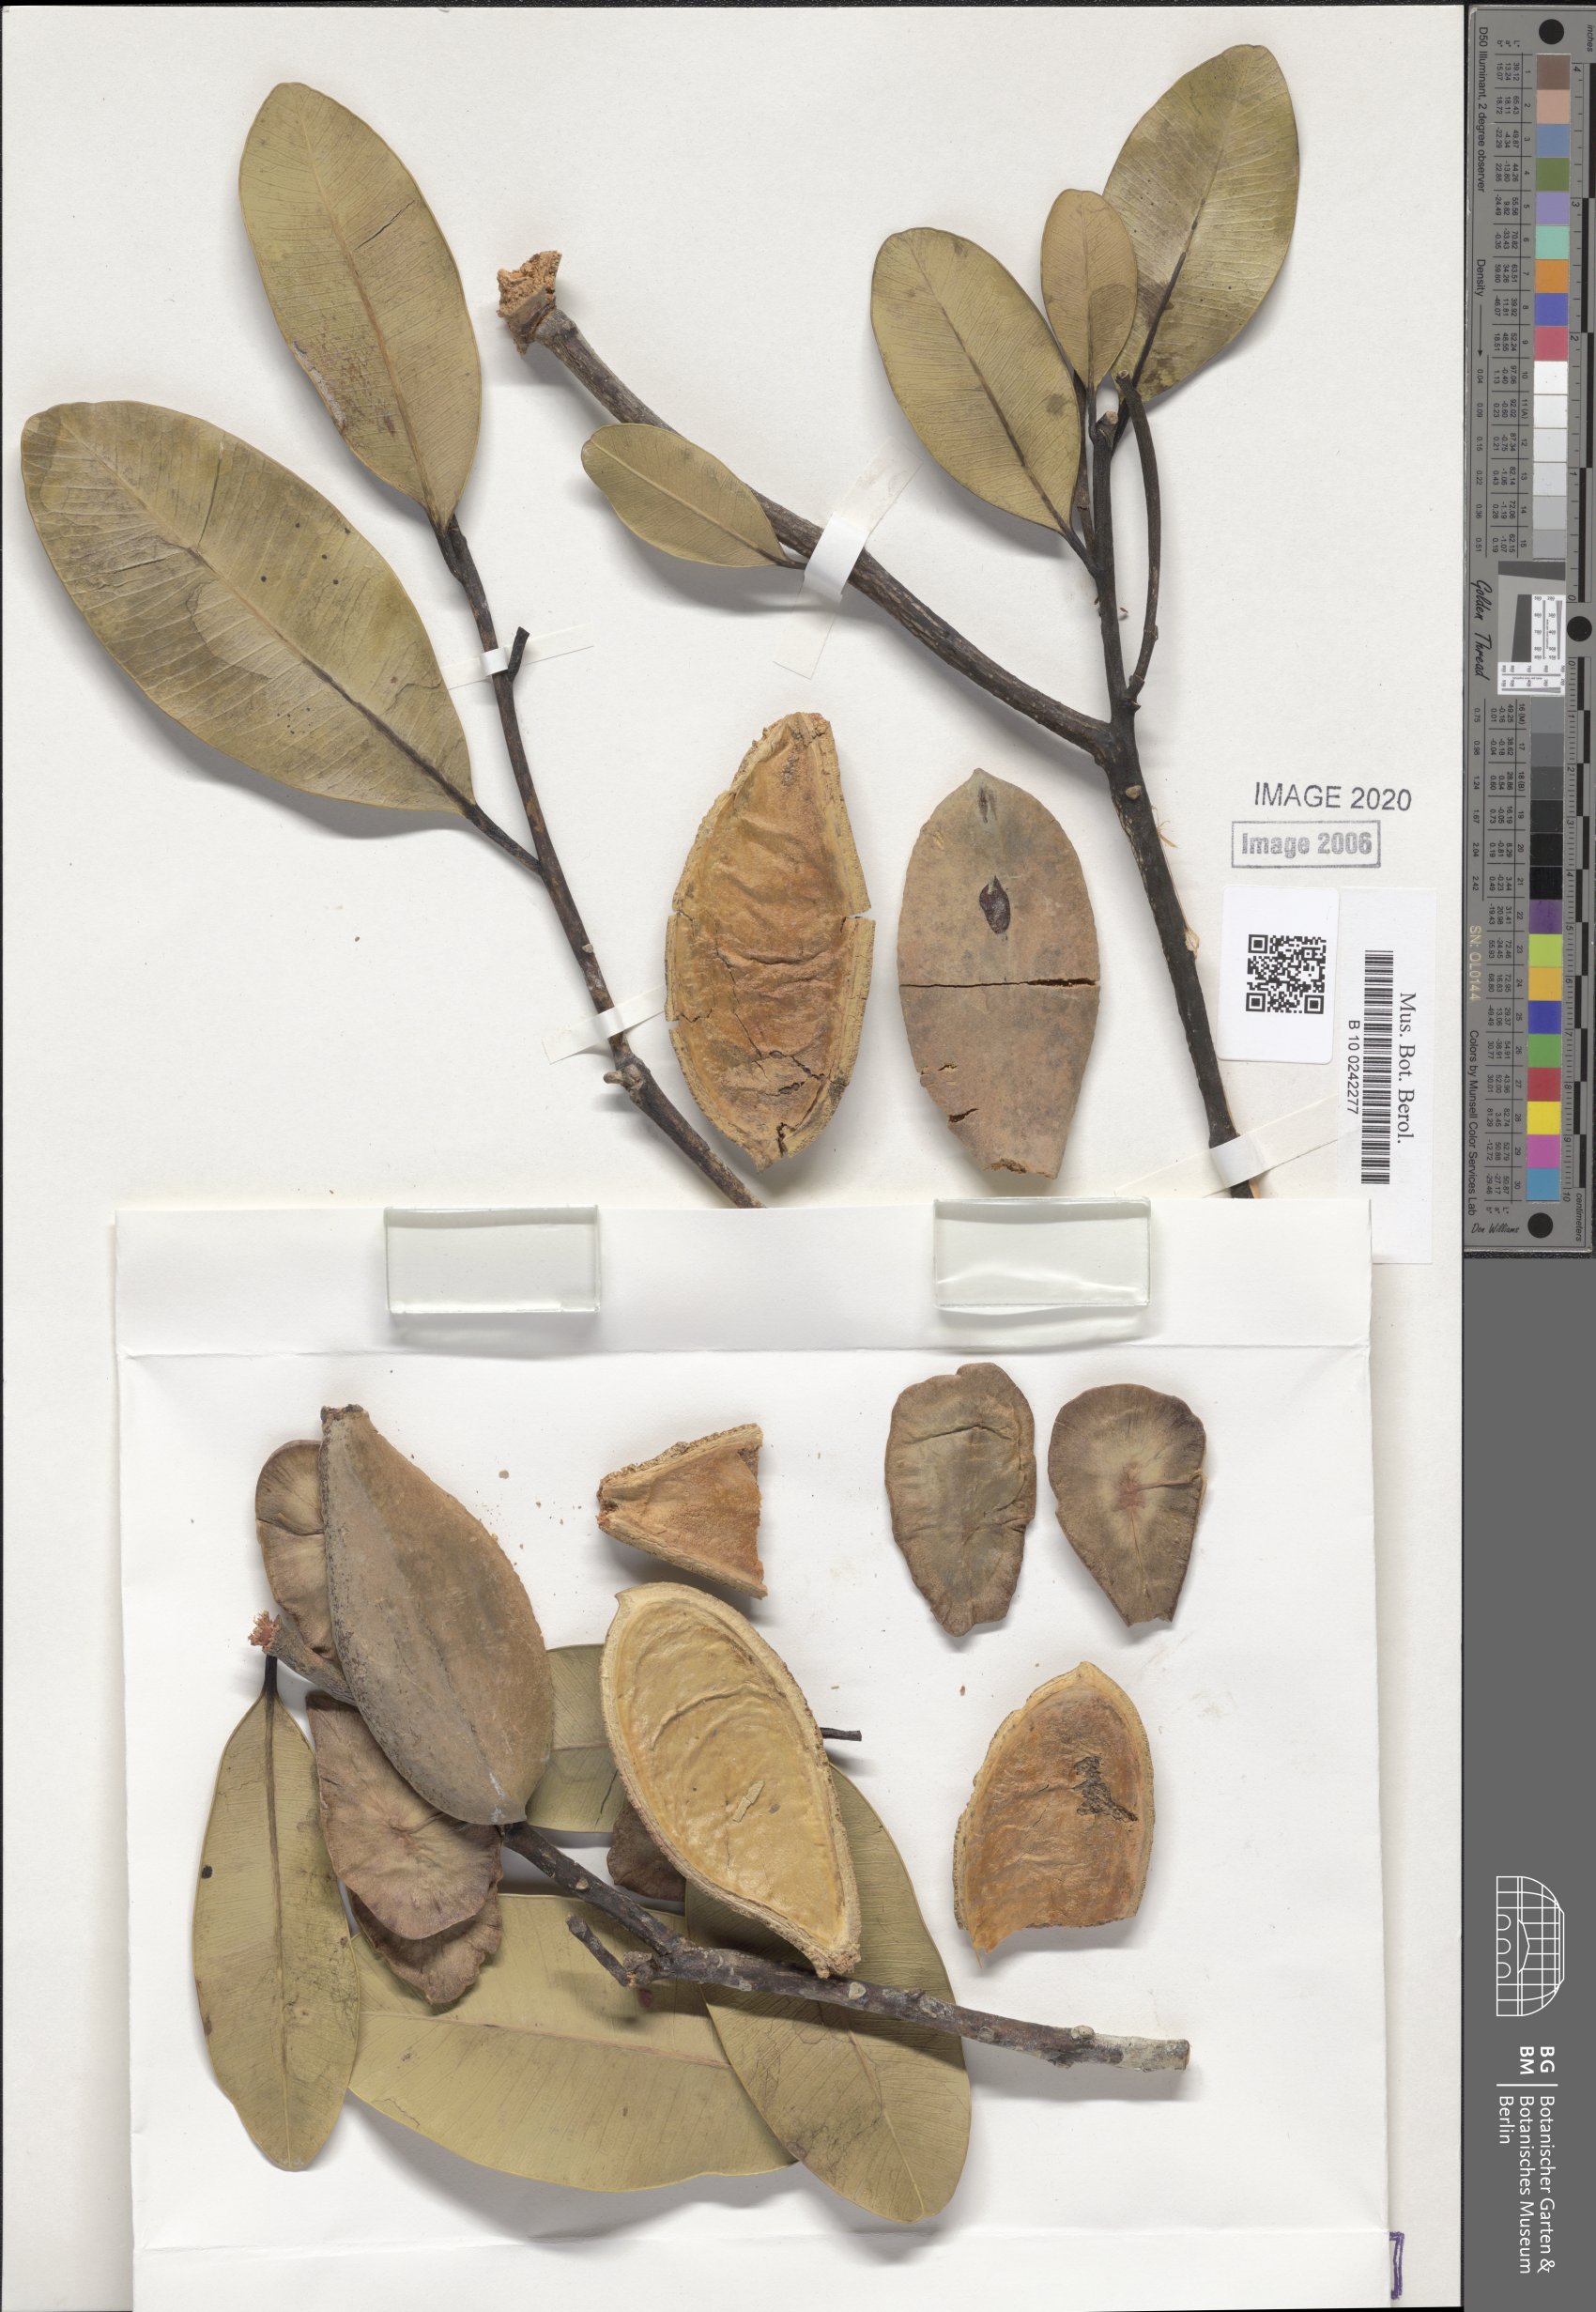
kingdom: Plantae
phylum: Tracheophyta
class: Magnoliopsida
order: Gentianales
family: Apocynaceae
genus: Aspidosperma
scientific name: Aspidosperma pachypterum
